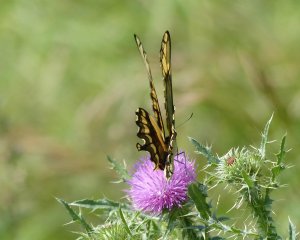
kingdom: Animalia
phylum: Arthropoda
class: Insecta
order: Lepidoptera
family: Papilionidae
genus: Papilio
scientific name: Papilio cresphontes
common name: Eastern Giant Swallowtail
